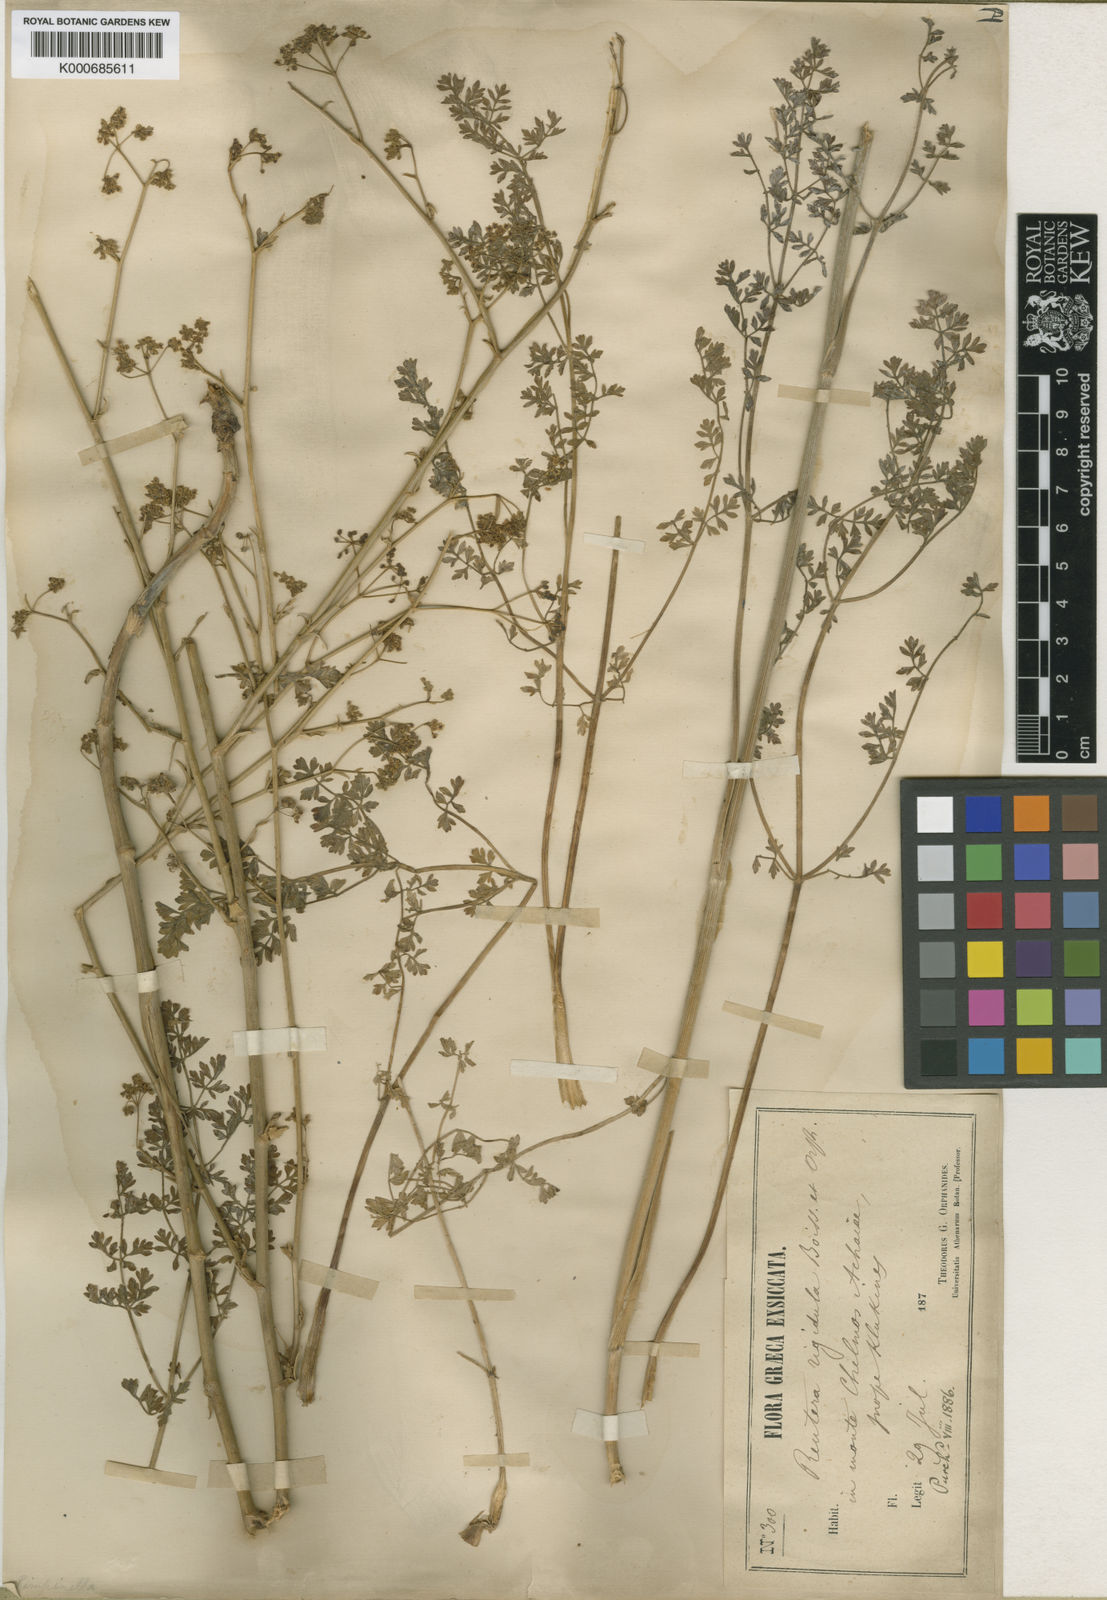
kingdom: Plantae
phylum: Tracheophyta
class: Magnoliopsida
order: Apiales
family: Apiaceae
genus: Pimpinella
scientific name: Pimpinella rigidula
